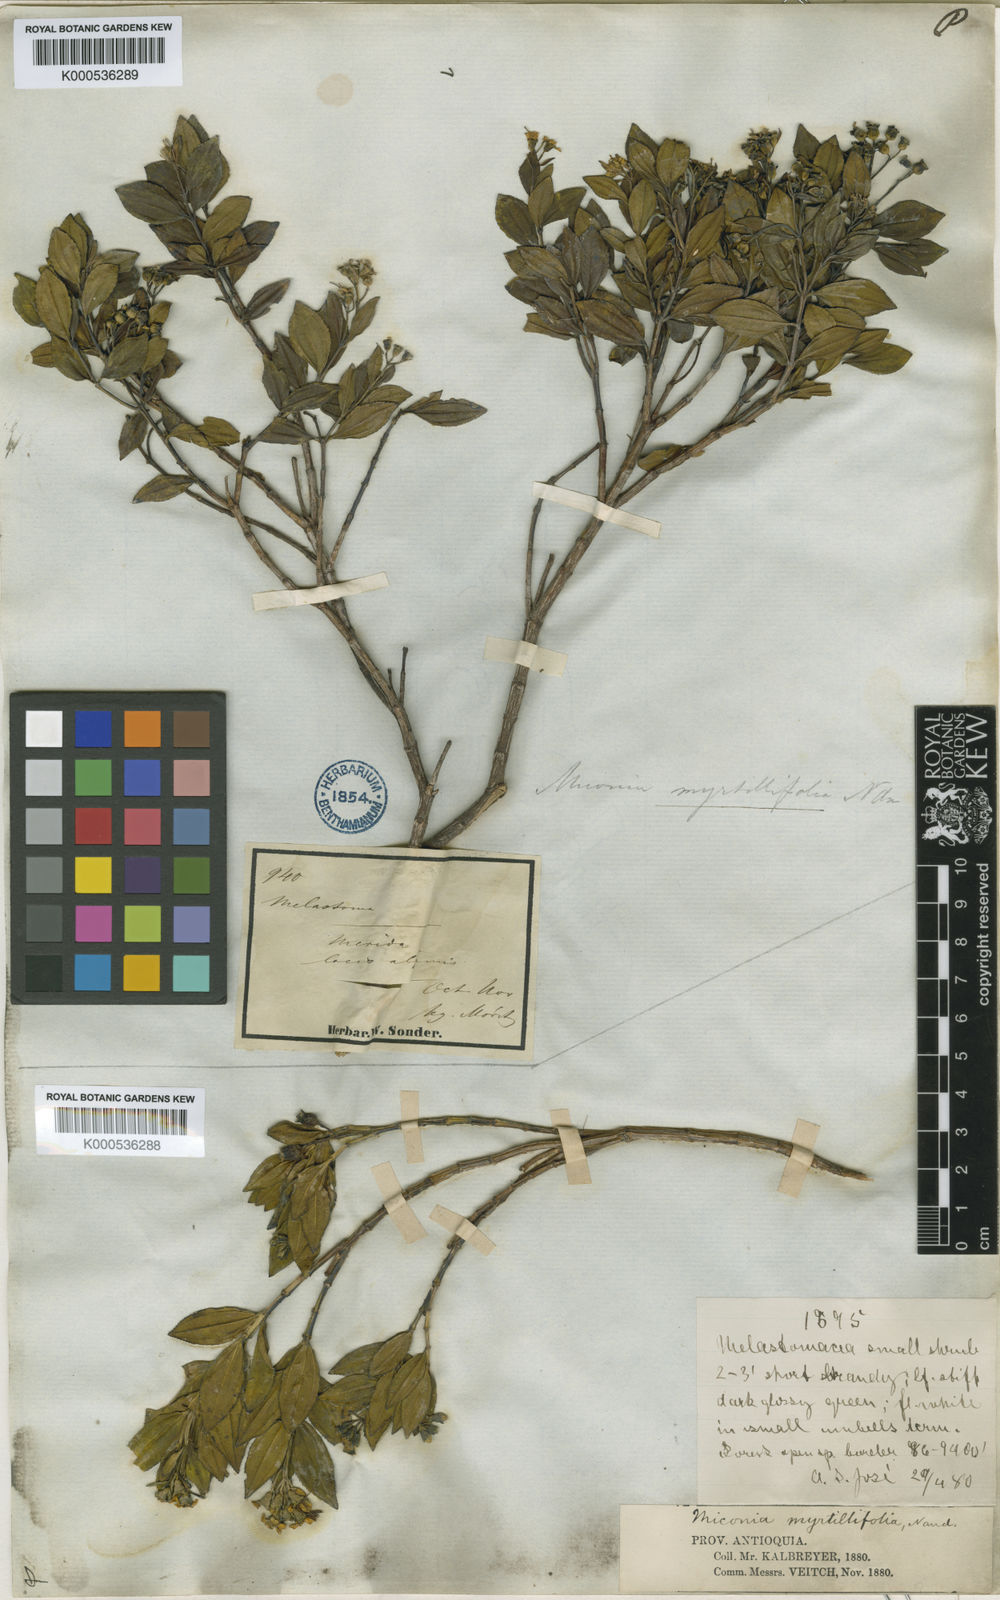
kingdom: Plantae
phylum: Tracheophyta
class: Magnoliopsida
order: Myrtales
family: Melastomataceae
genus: Miconia
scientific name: Miconia myrtillifolia
